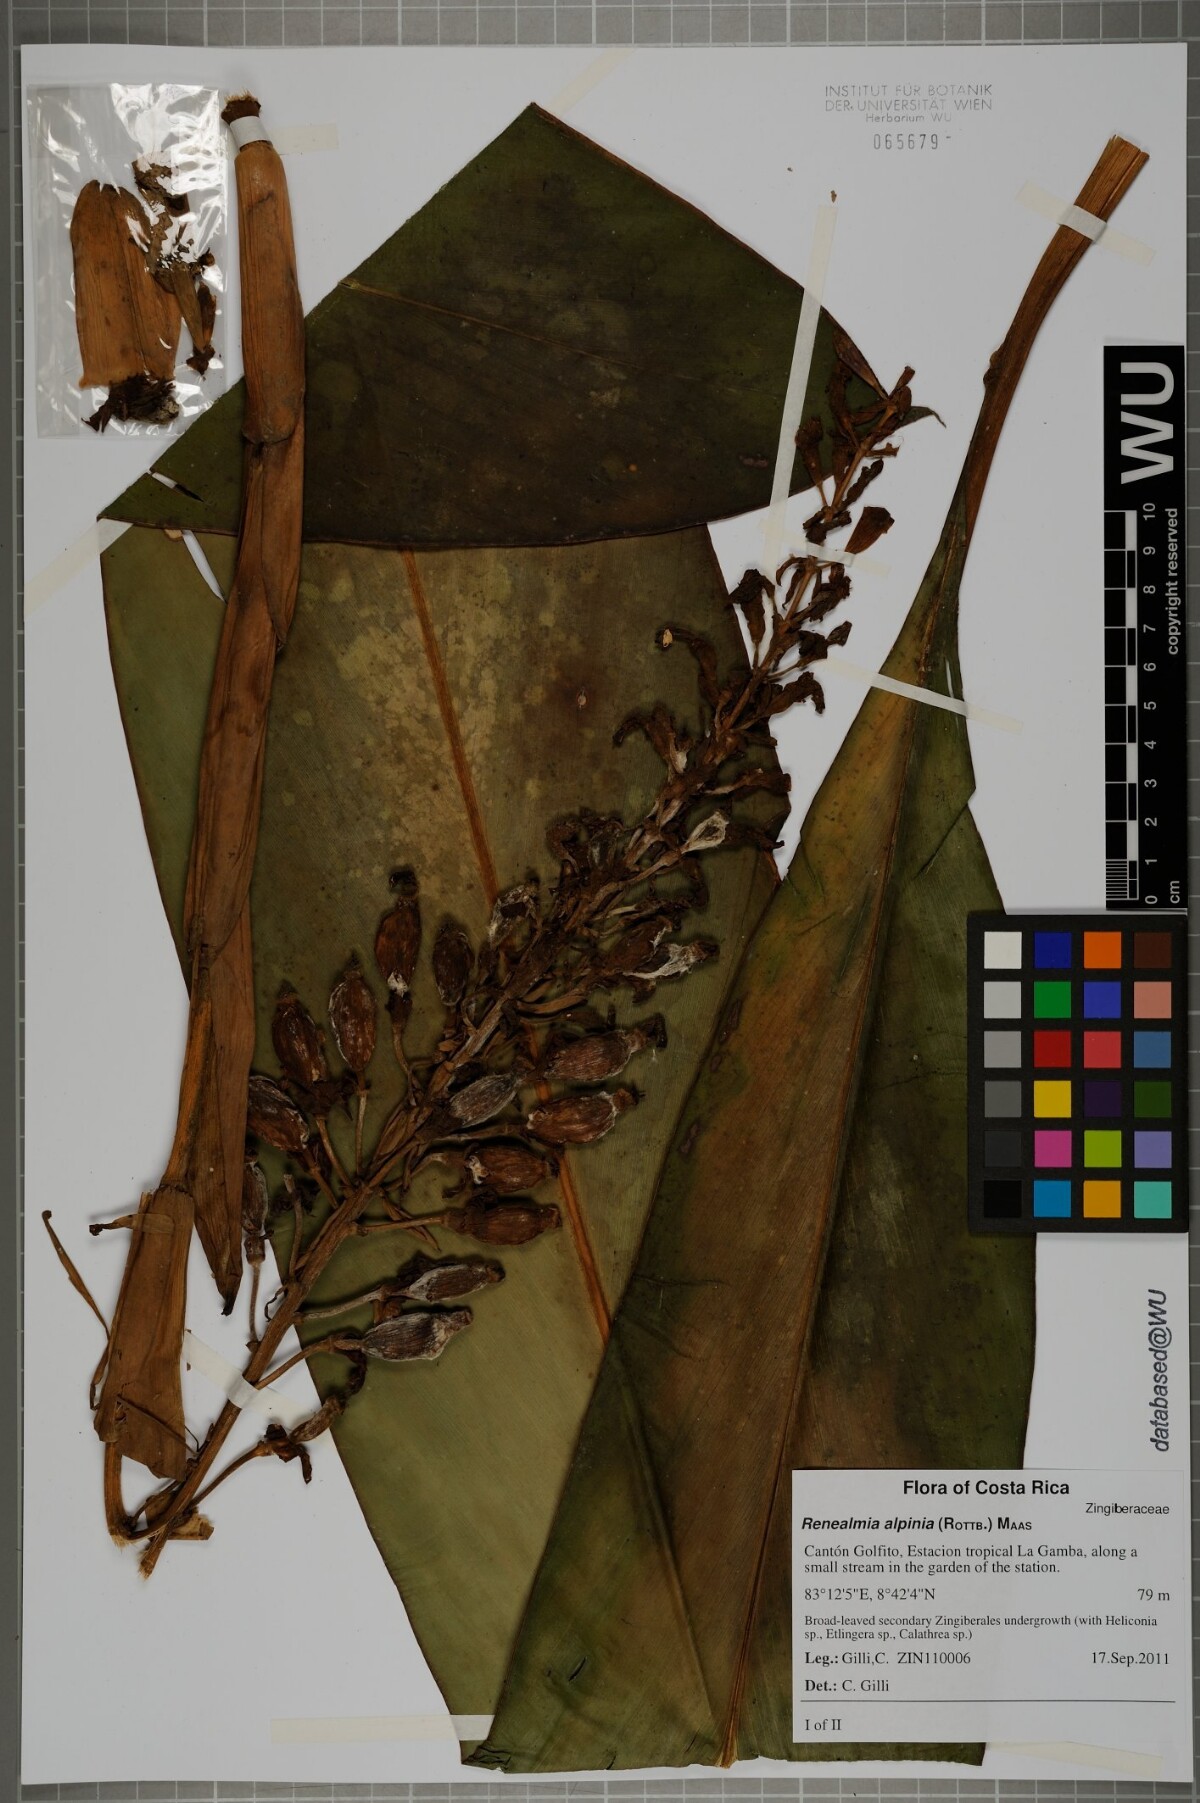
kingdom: Plantae
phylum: Tracheophyta
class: Liliopsida
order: Zingiberales
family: Zingiberaceae
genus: Renealmia
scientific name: Renealmia alpinia
